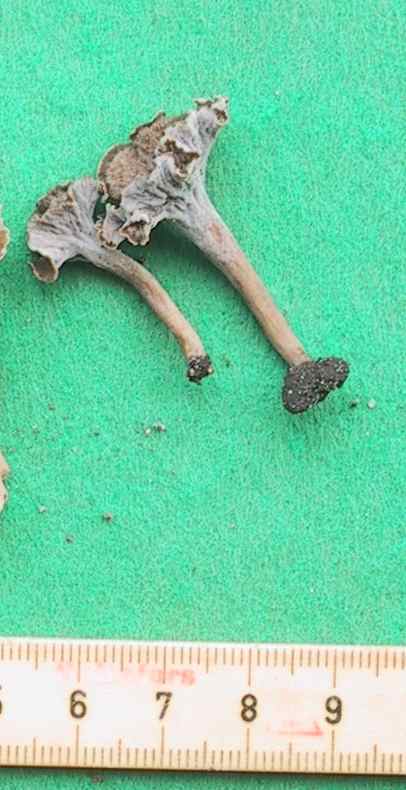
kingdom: Fungi
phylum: Basidiomycota
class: Agaricomycetes
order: Cantharellales
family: Hydnaceae
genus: Craterellus
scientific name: Craterellus undulatus
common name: liden kantarel
